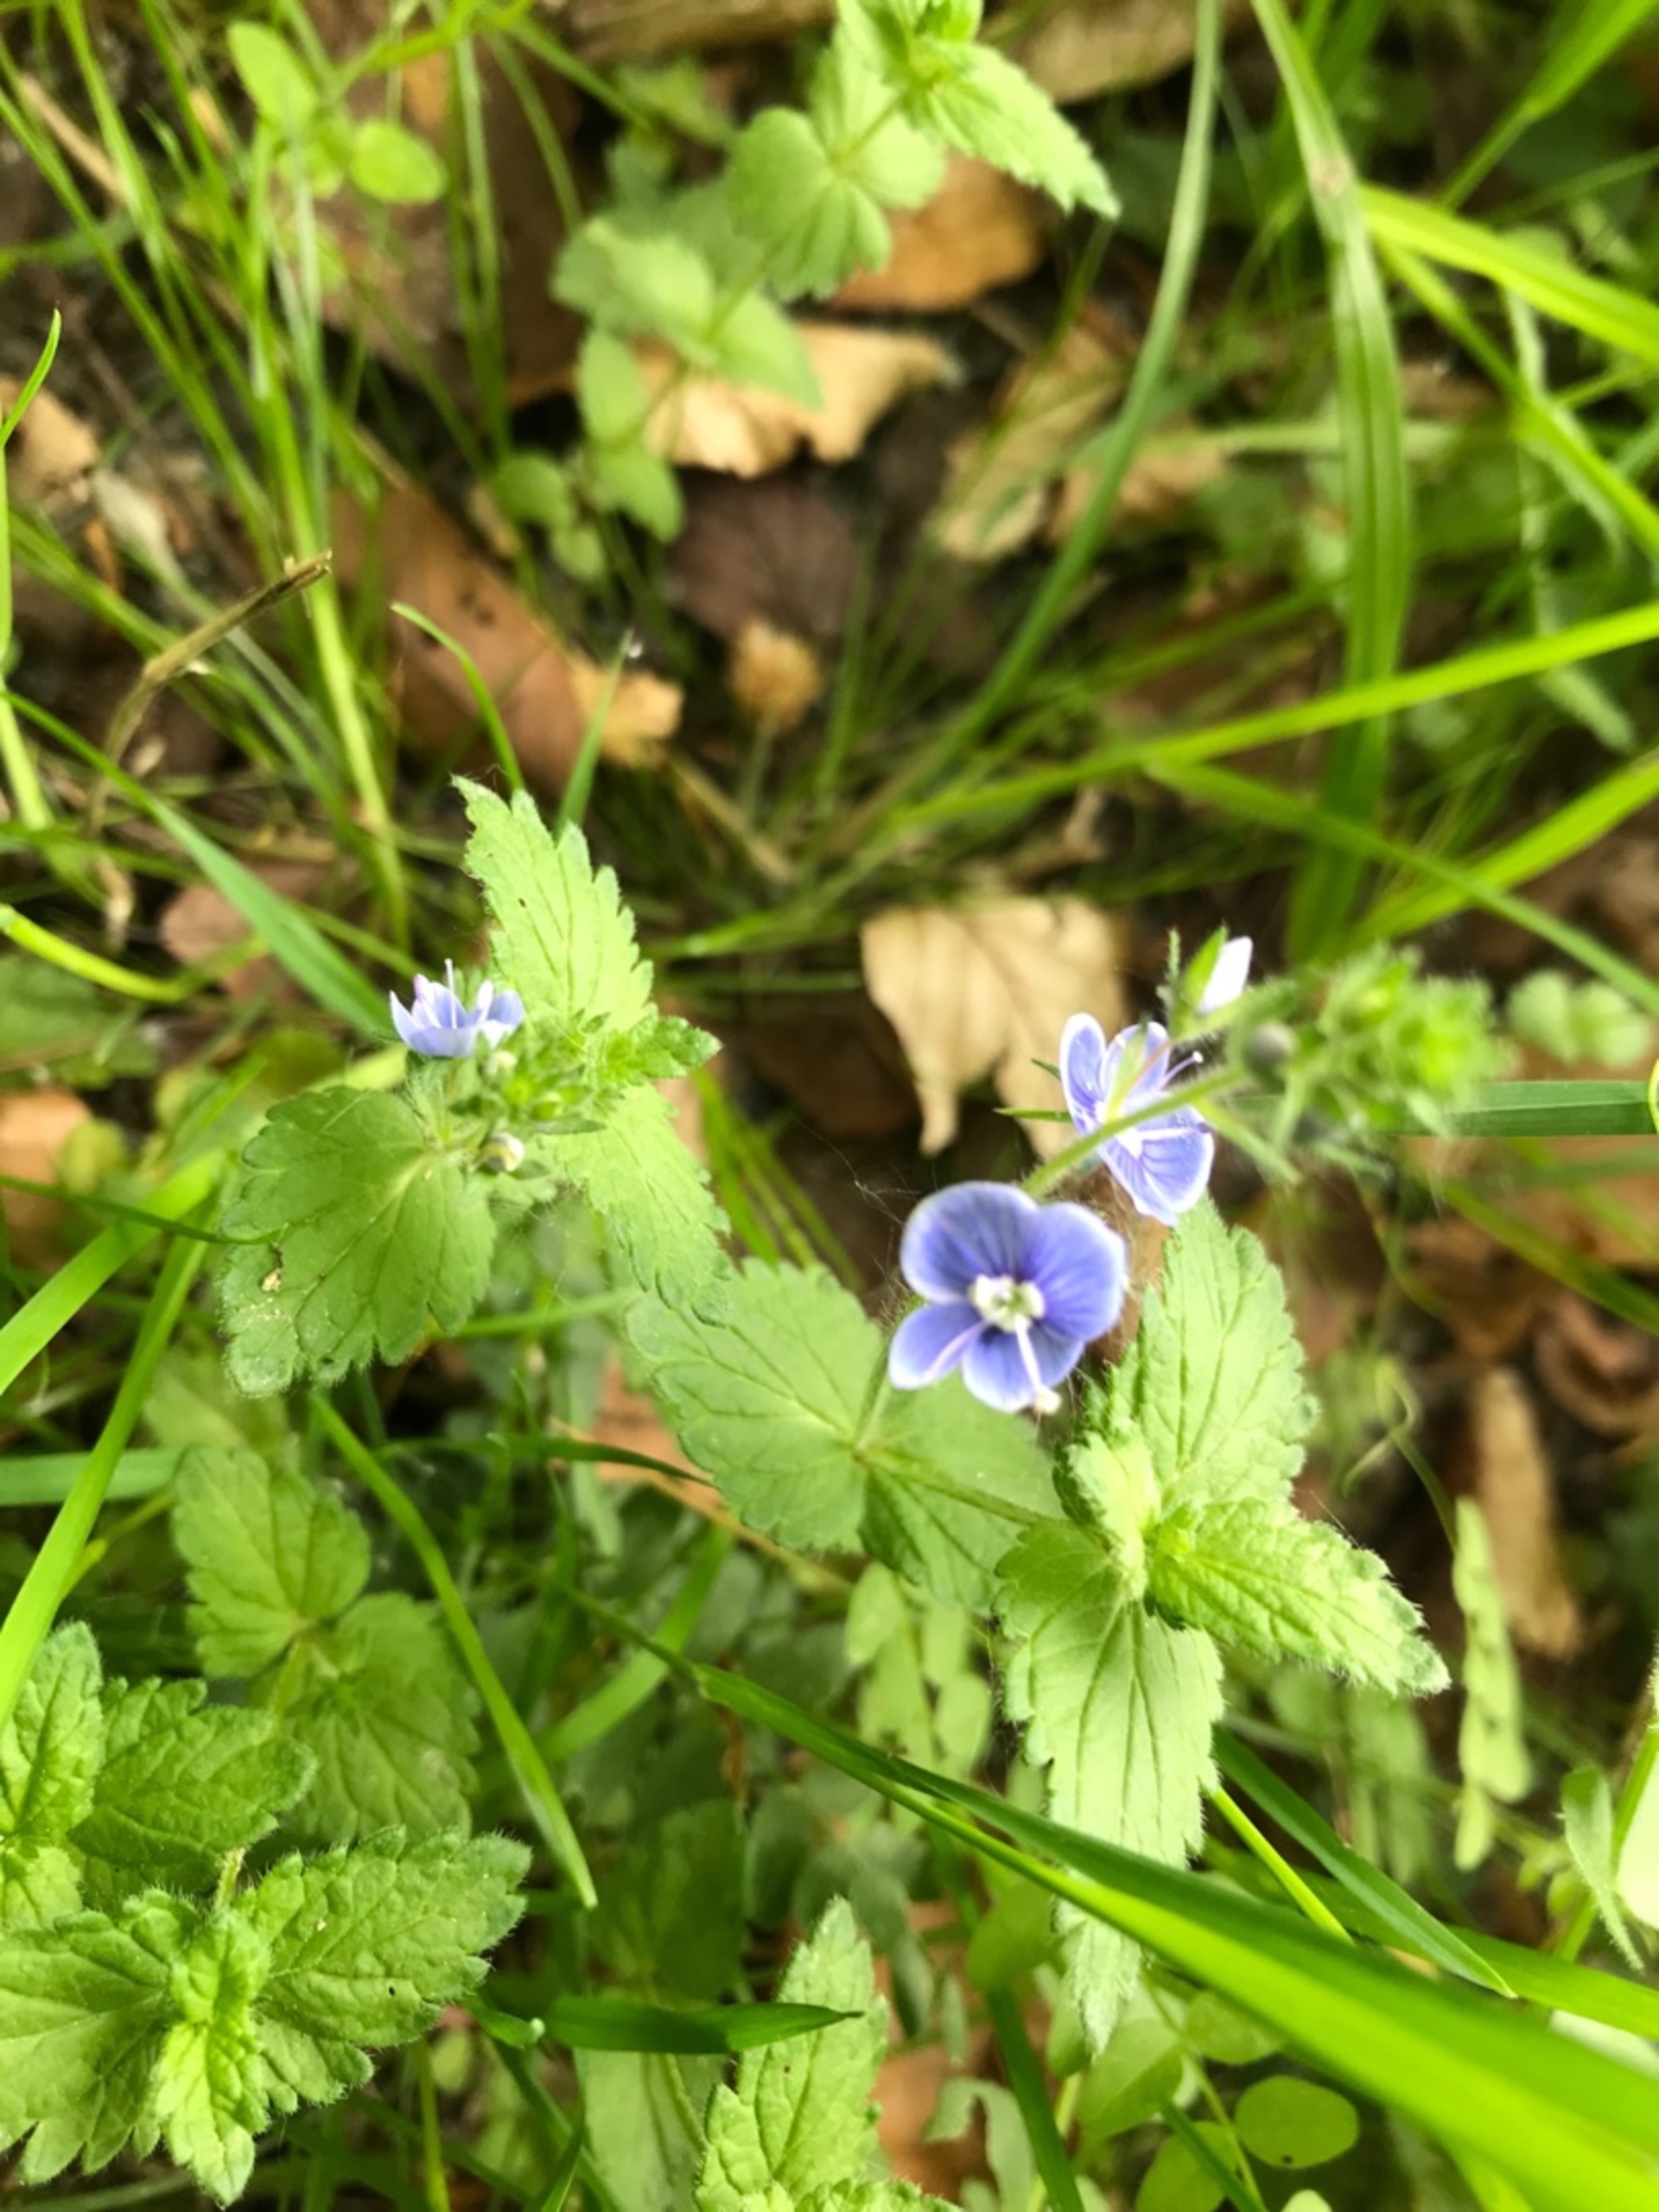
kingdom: Plantae
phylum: Tracheophyta
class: Magnoliopsida
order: Lamiales
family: Plantaginaceae
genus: Veronica
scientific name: Veronica chamaedrys
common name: Tveskægget ærenpris
